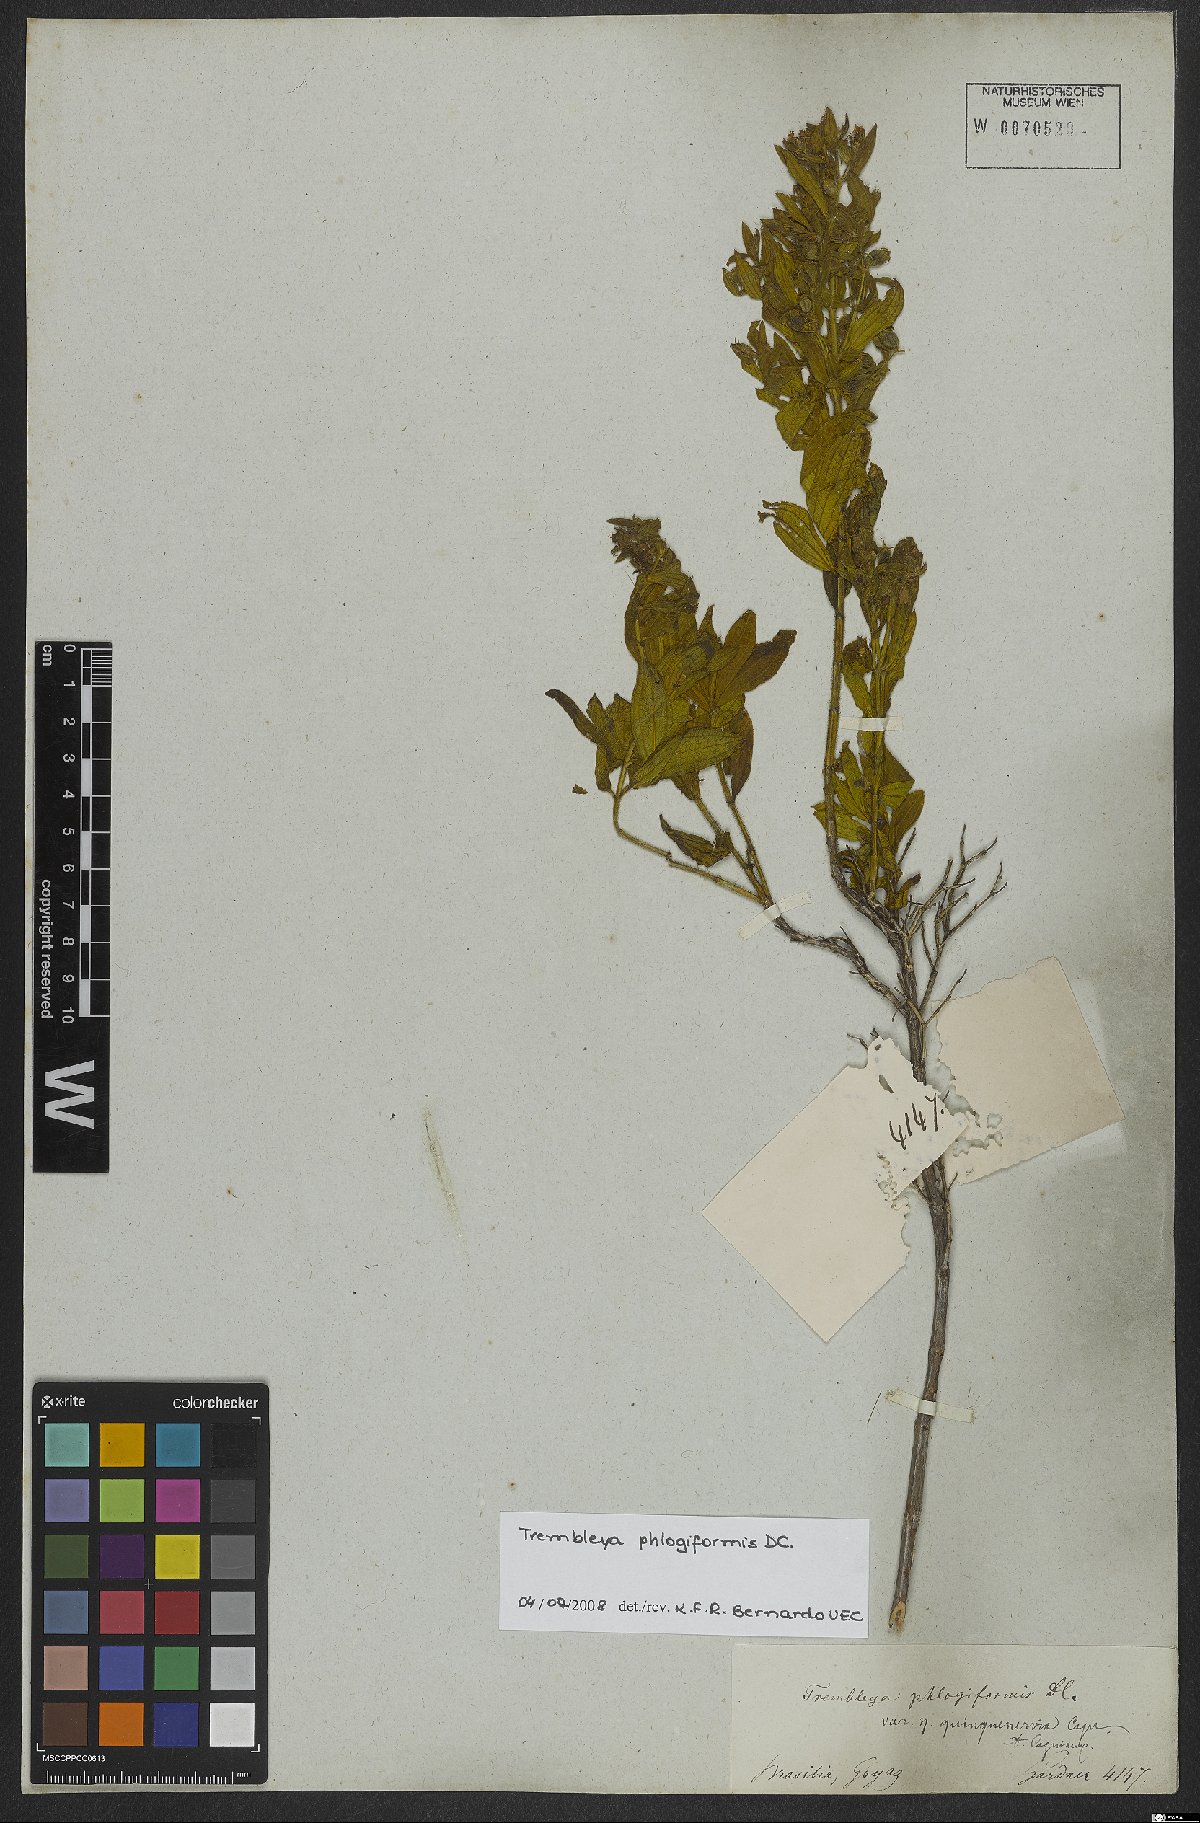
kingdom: Plantae
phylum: Tracheophyta
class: Magnoliopsida
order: Myrtales
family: Melastomataceae
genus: Microlicia
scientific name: Microlicia phlogiformis
